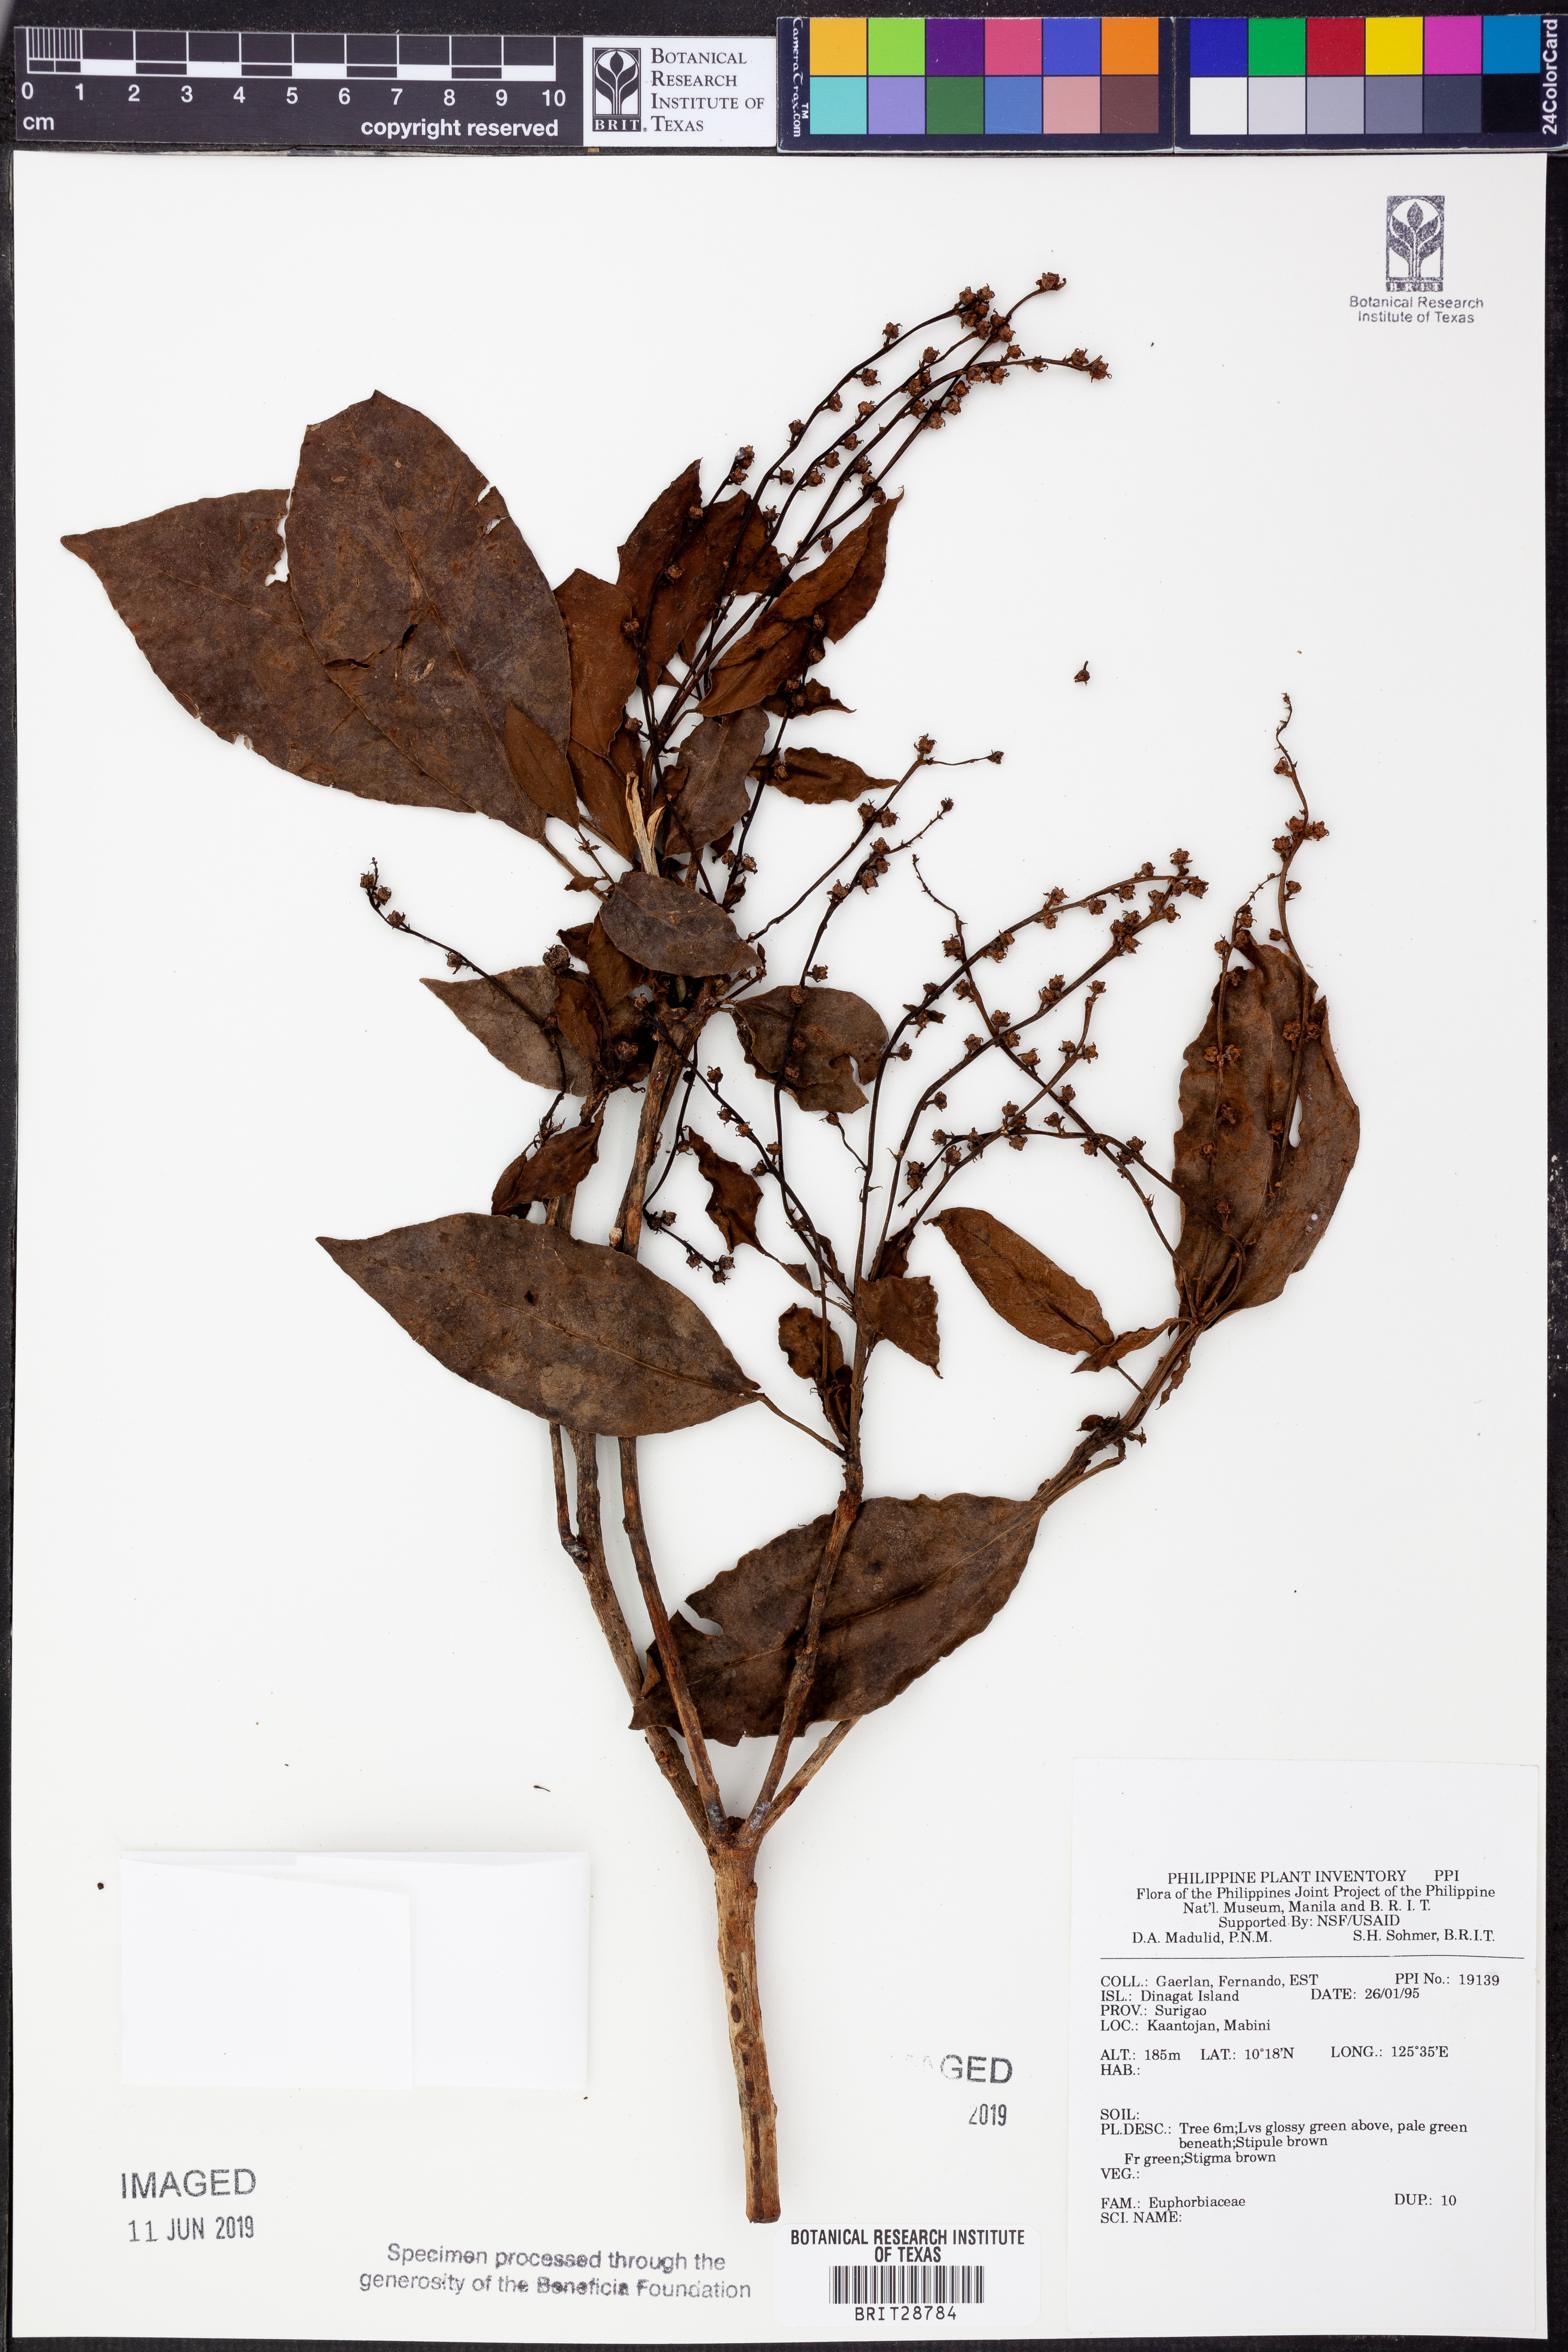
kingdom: Plantae
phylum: Tracheophyta
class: Magnoliopsida
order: Malpighiales
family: Euphorbiaceae
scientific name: Euphorbiaceae
